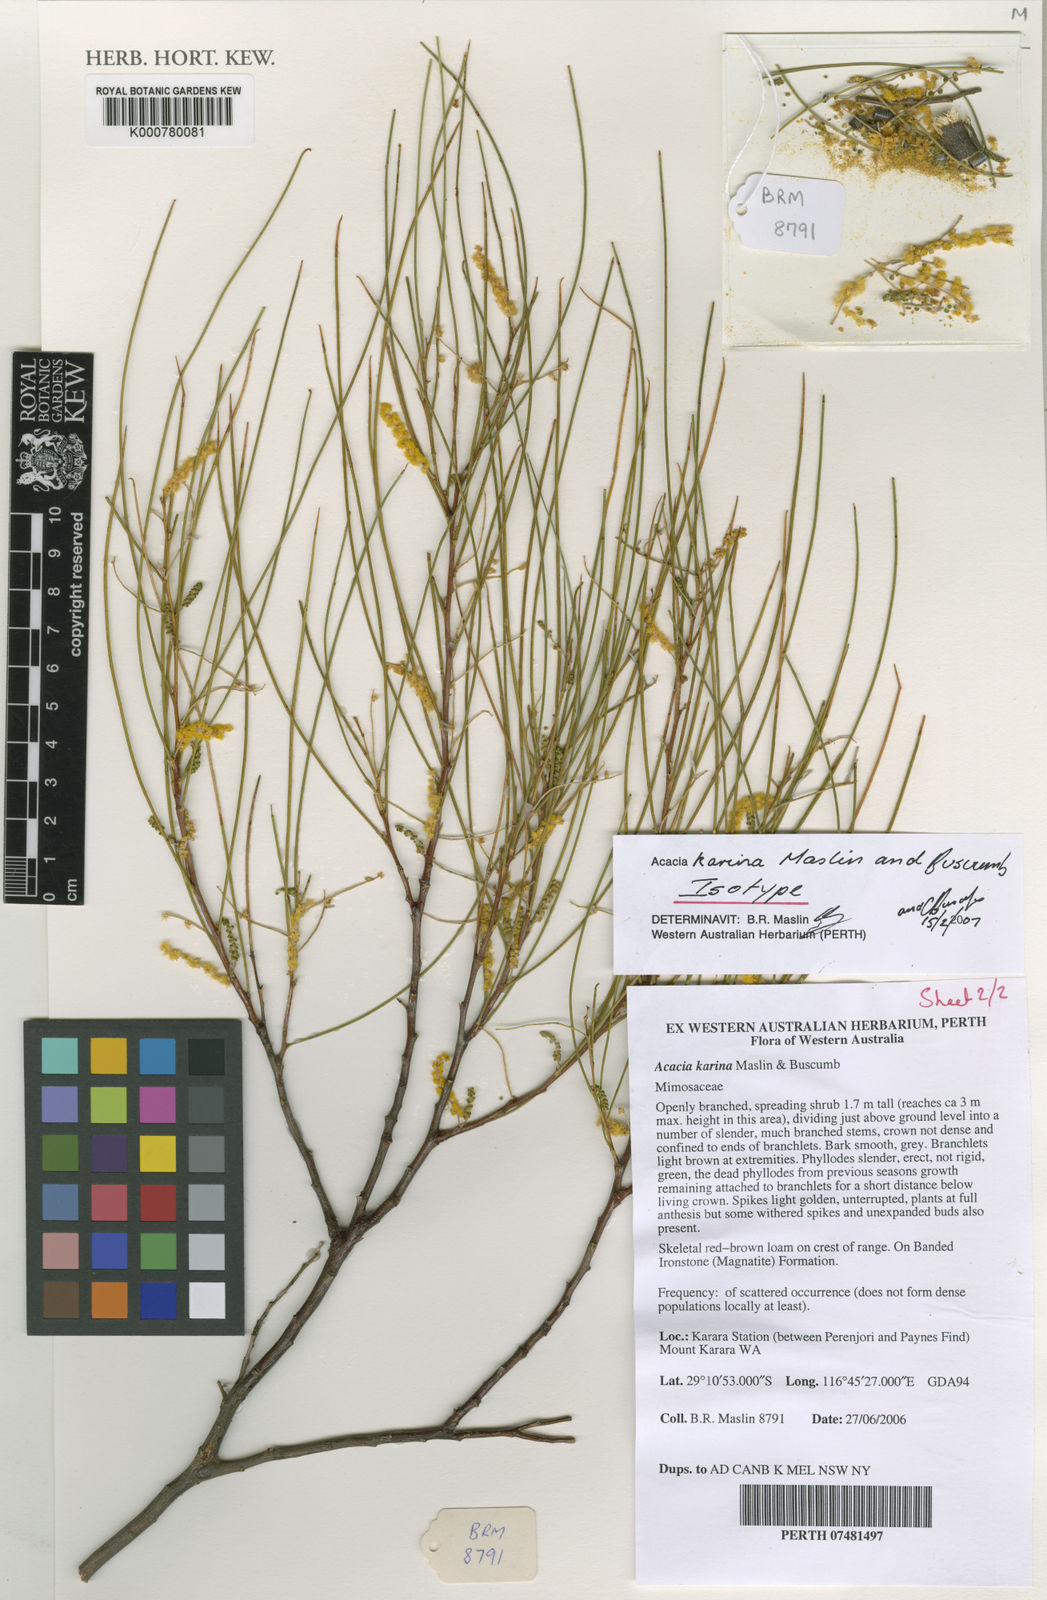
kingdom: Plantae
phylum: Tracheophyta
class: Magnoliopsida
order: Fabales
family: Fabaceae
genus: Acacia
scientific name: Acacia karina
